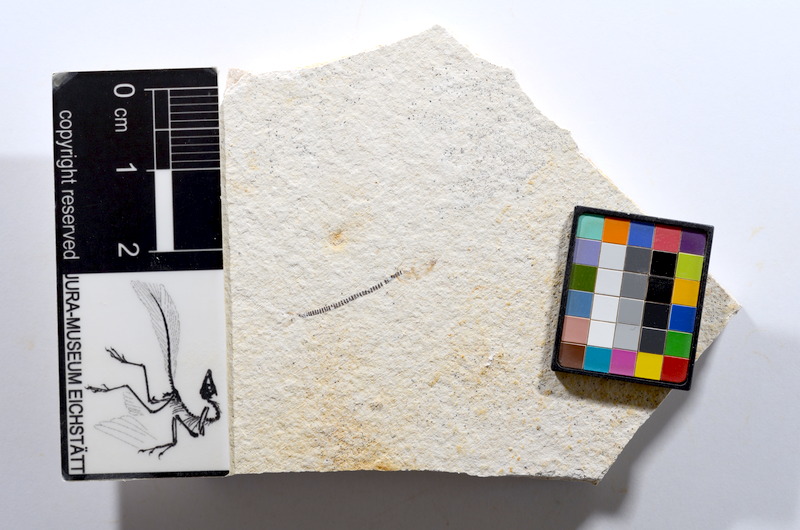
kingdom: Animalia
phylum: Chordata
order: Salmoniformes
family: Orthogonikleithridae
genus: Orthogonikleithrus
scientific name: Orthogonikleithrus hoelli
